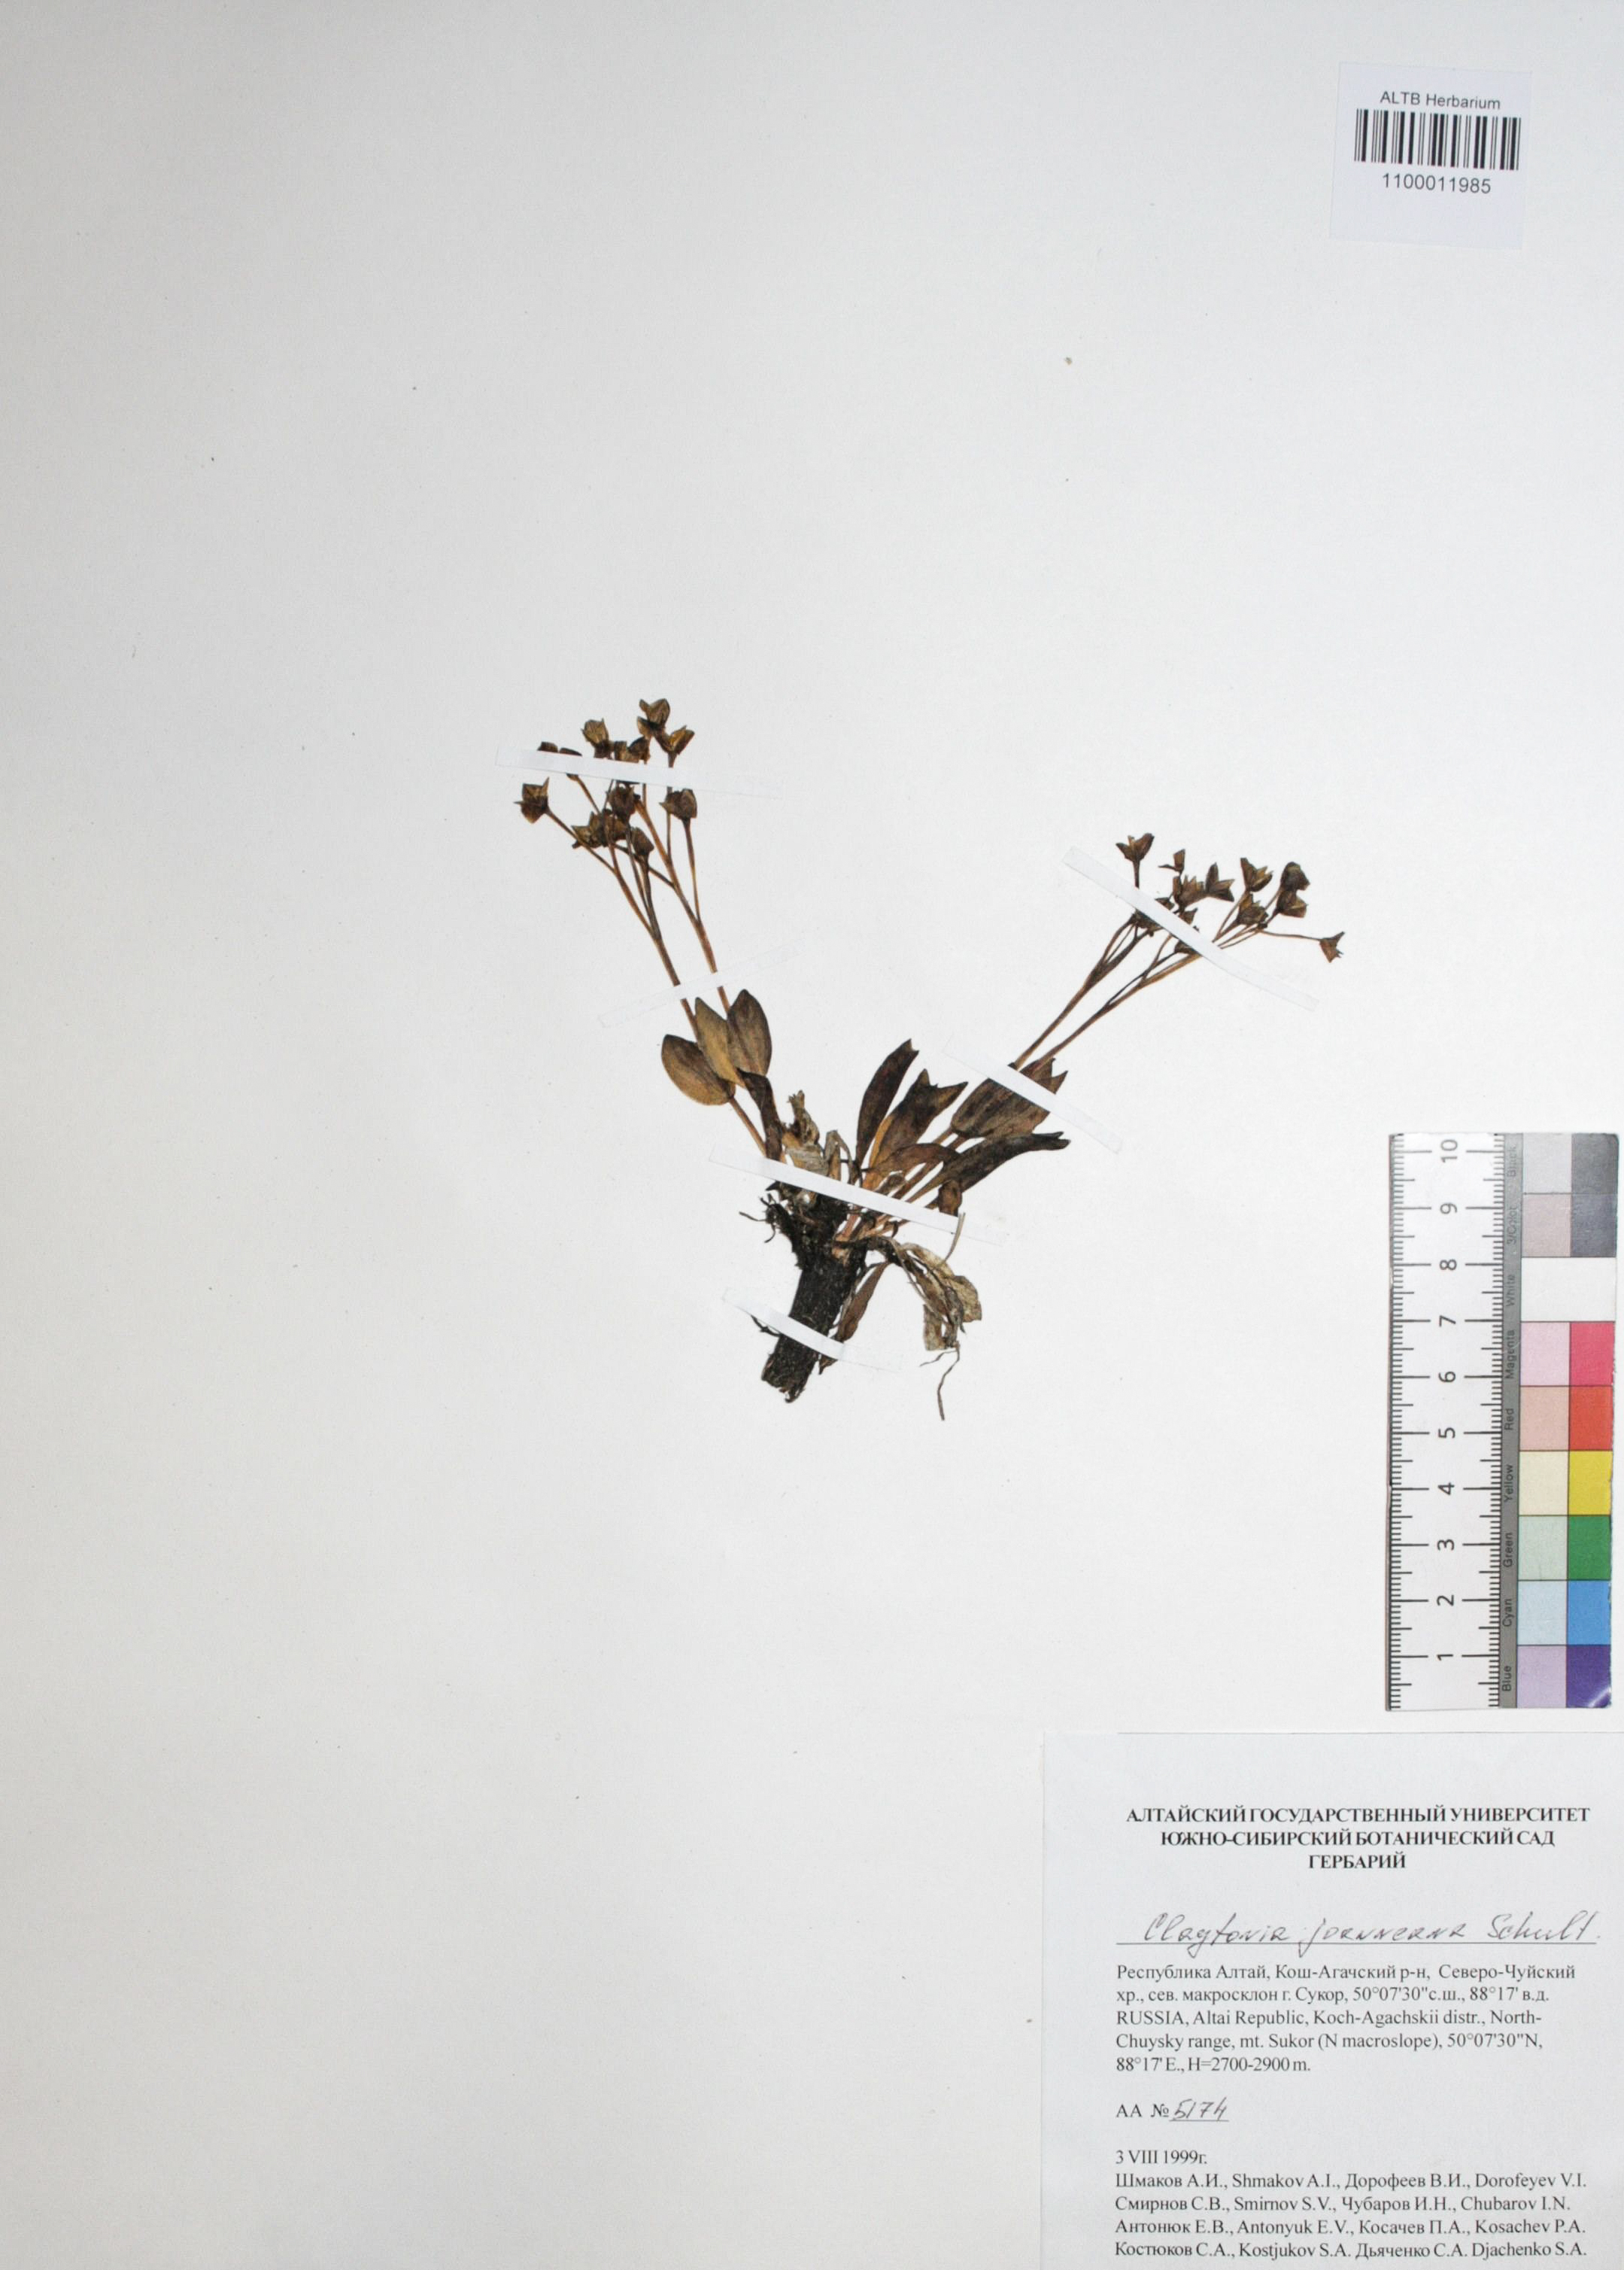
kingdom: Plantae
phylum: Tracheophyta
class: Magnoliopsida
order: Caryophyllales
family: Montiaceae
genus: Claytonia
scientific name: Claytonia joanneana
